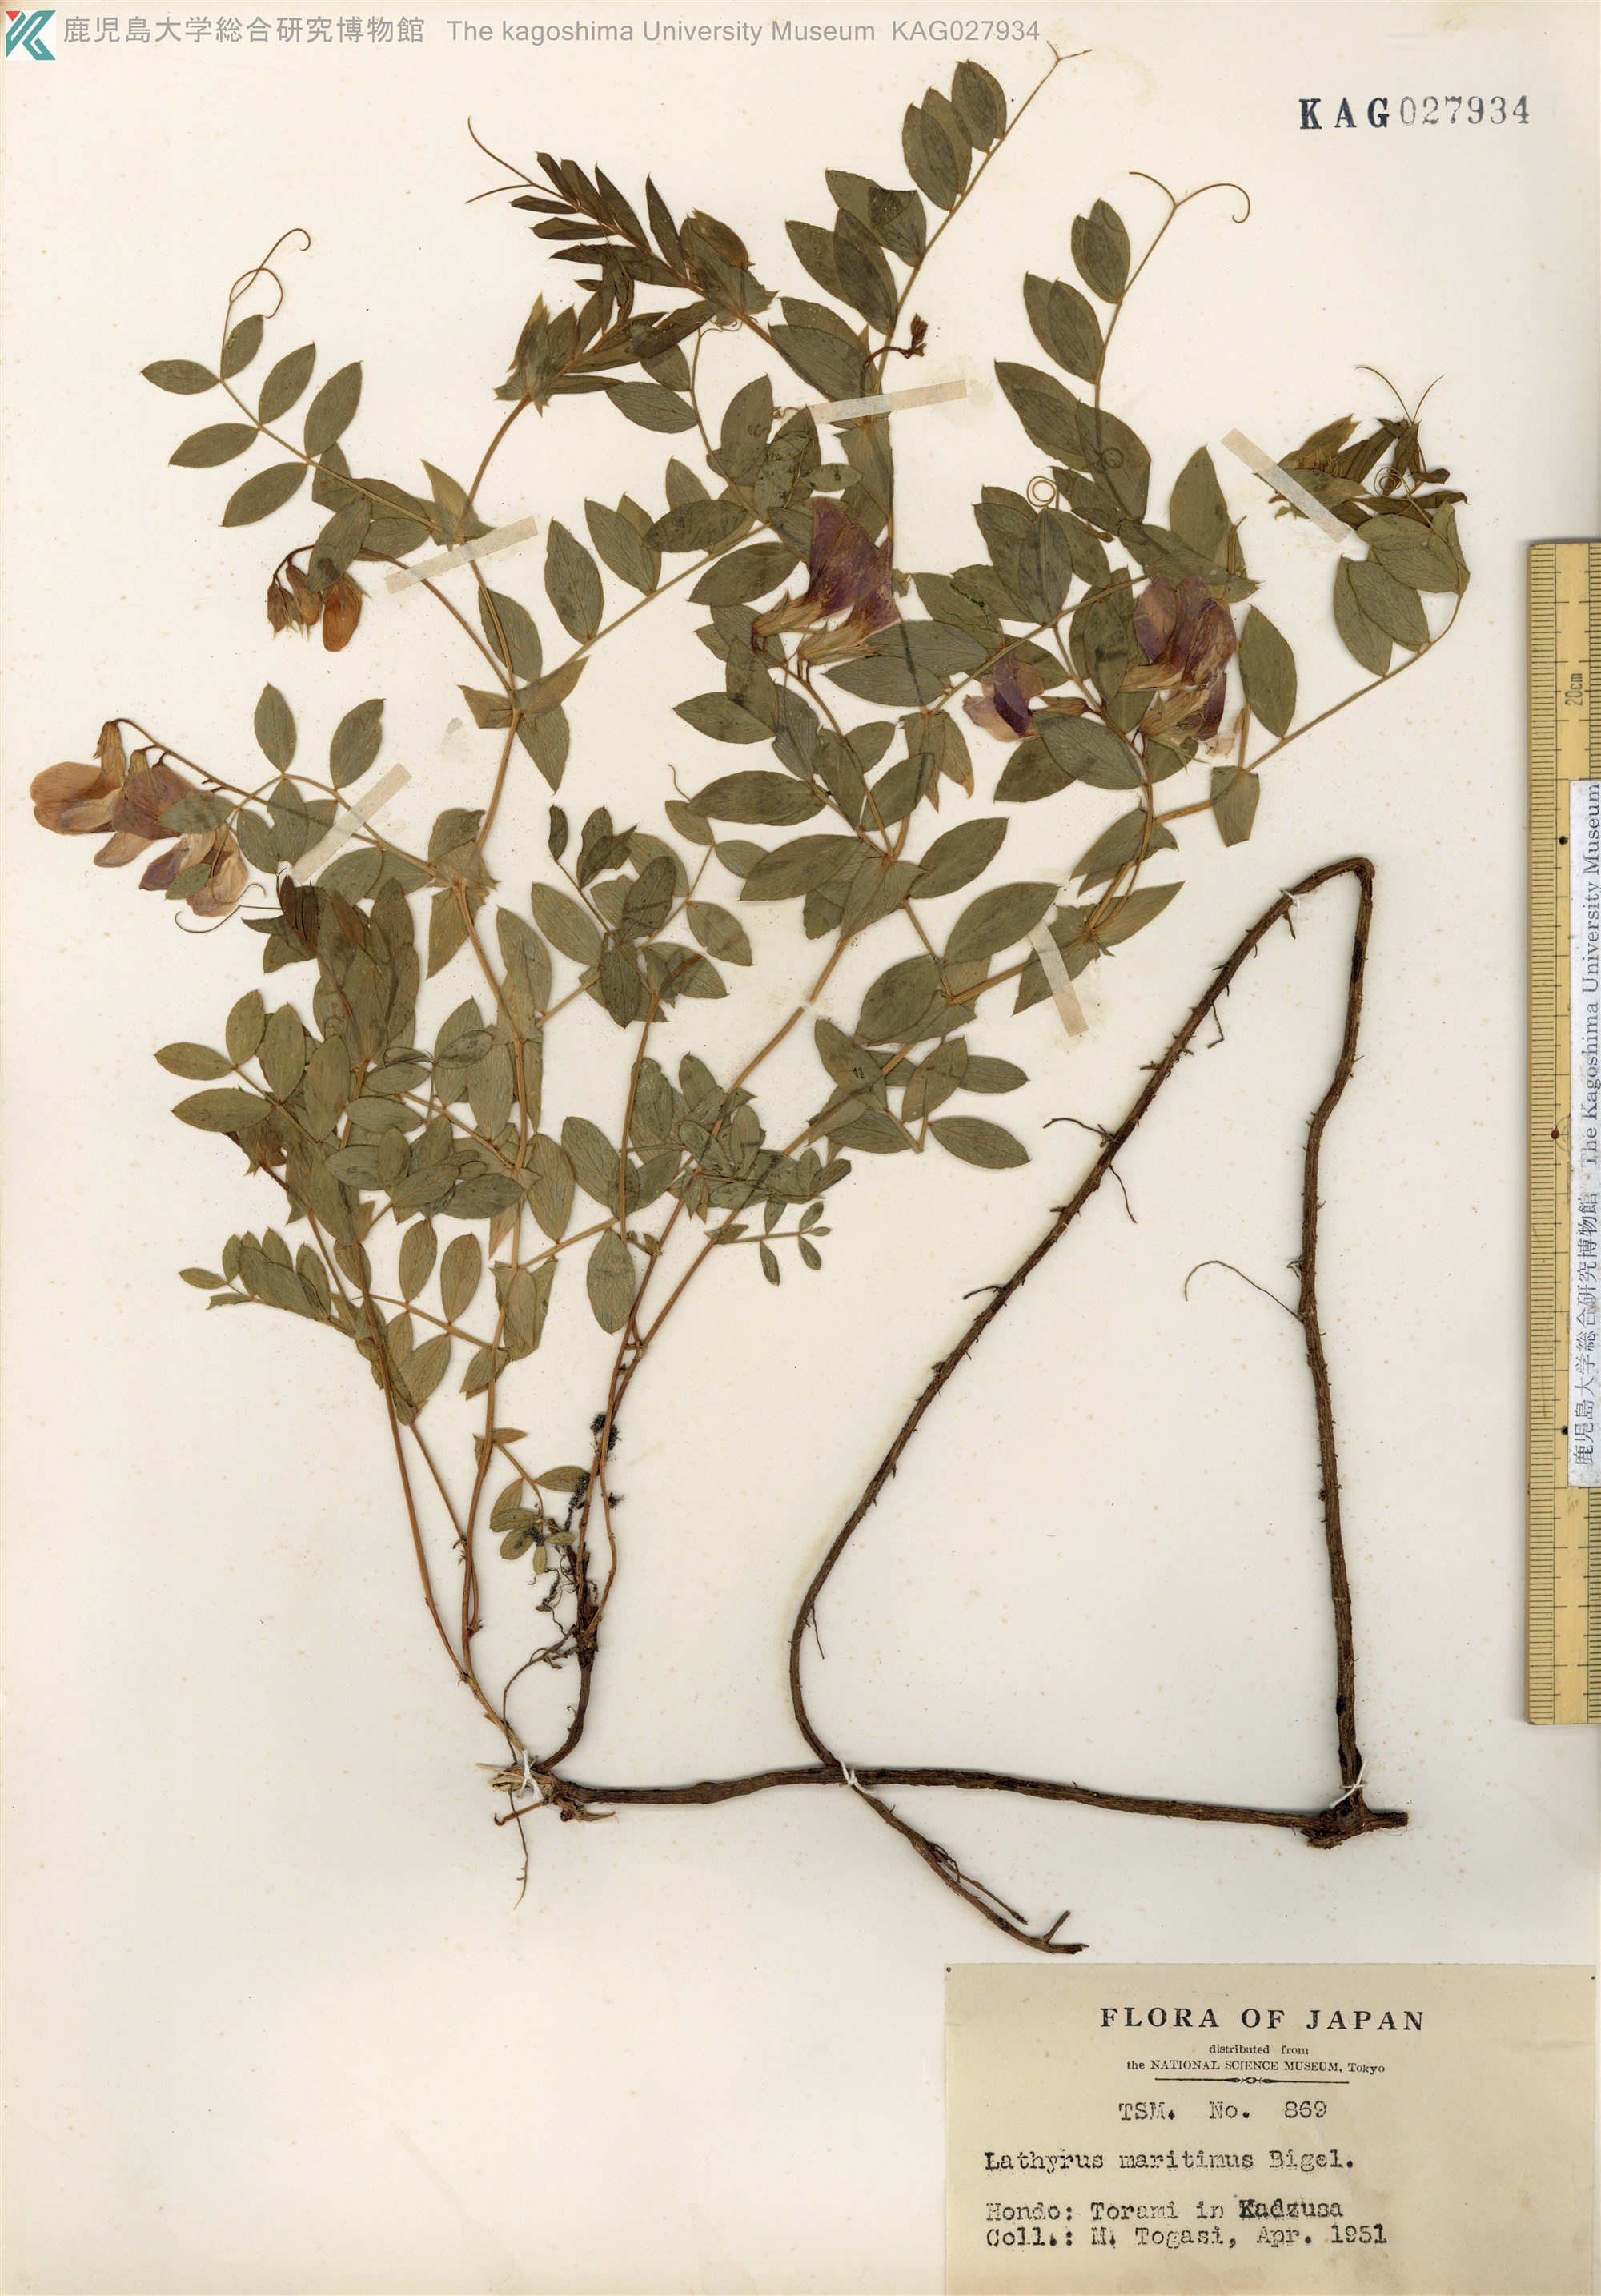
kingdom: Plantae
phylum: Tracheophyta
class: Magnoliopsida
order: Fabales
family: Fabaceae
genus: Lathyrus
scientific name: Lathyrus japonicus
